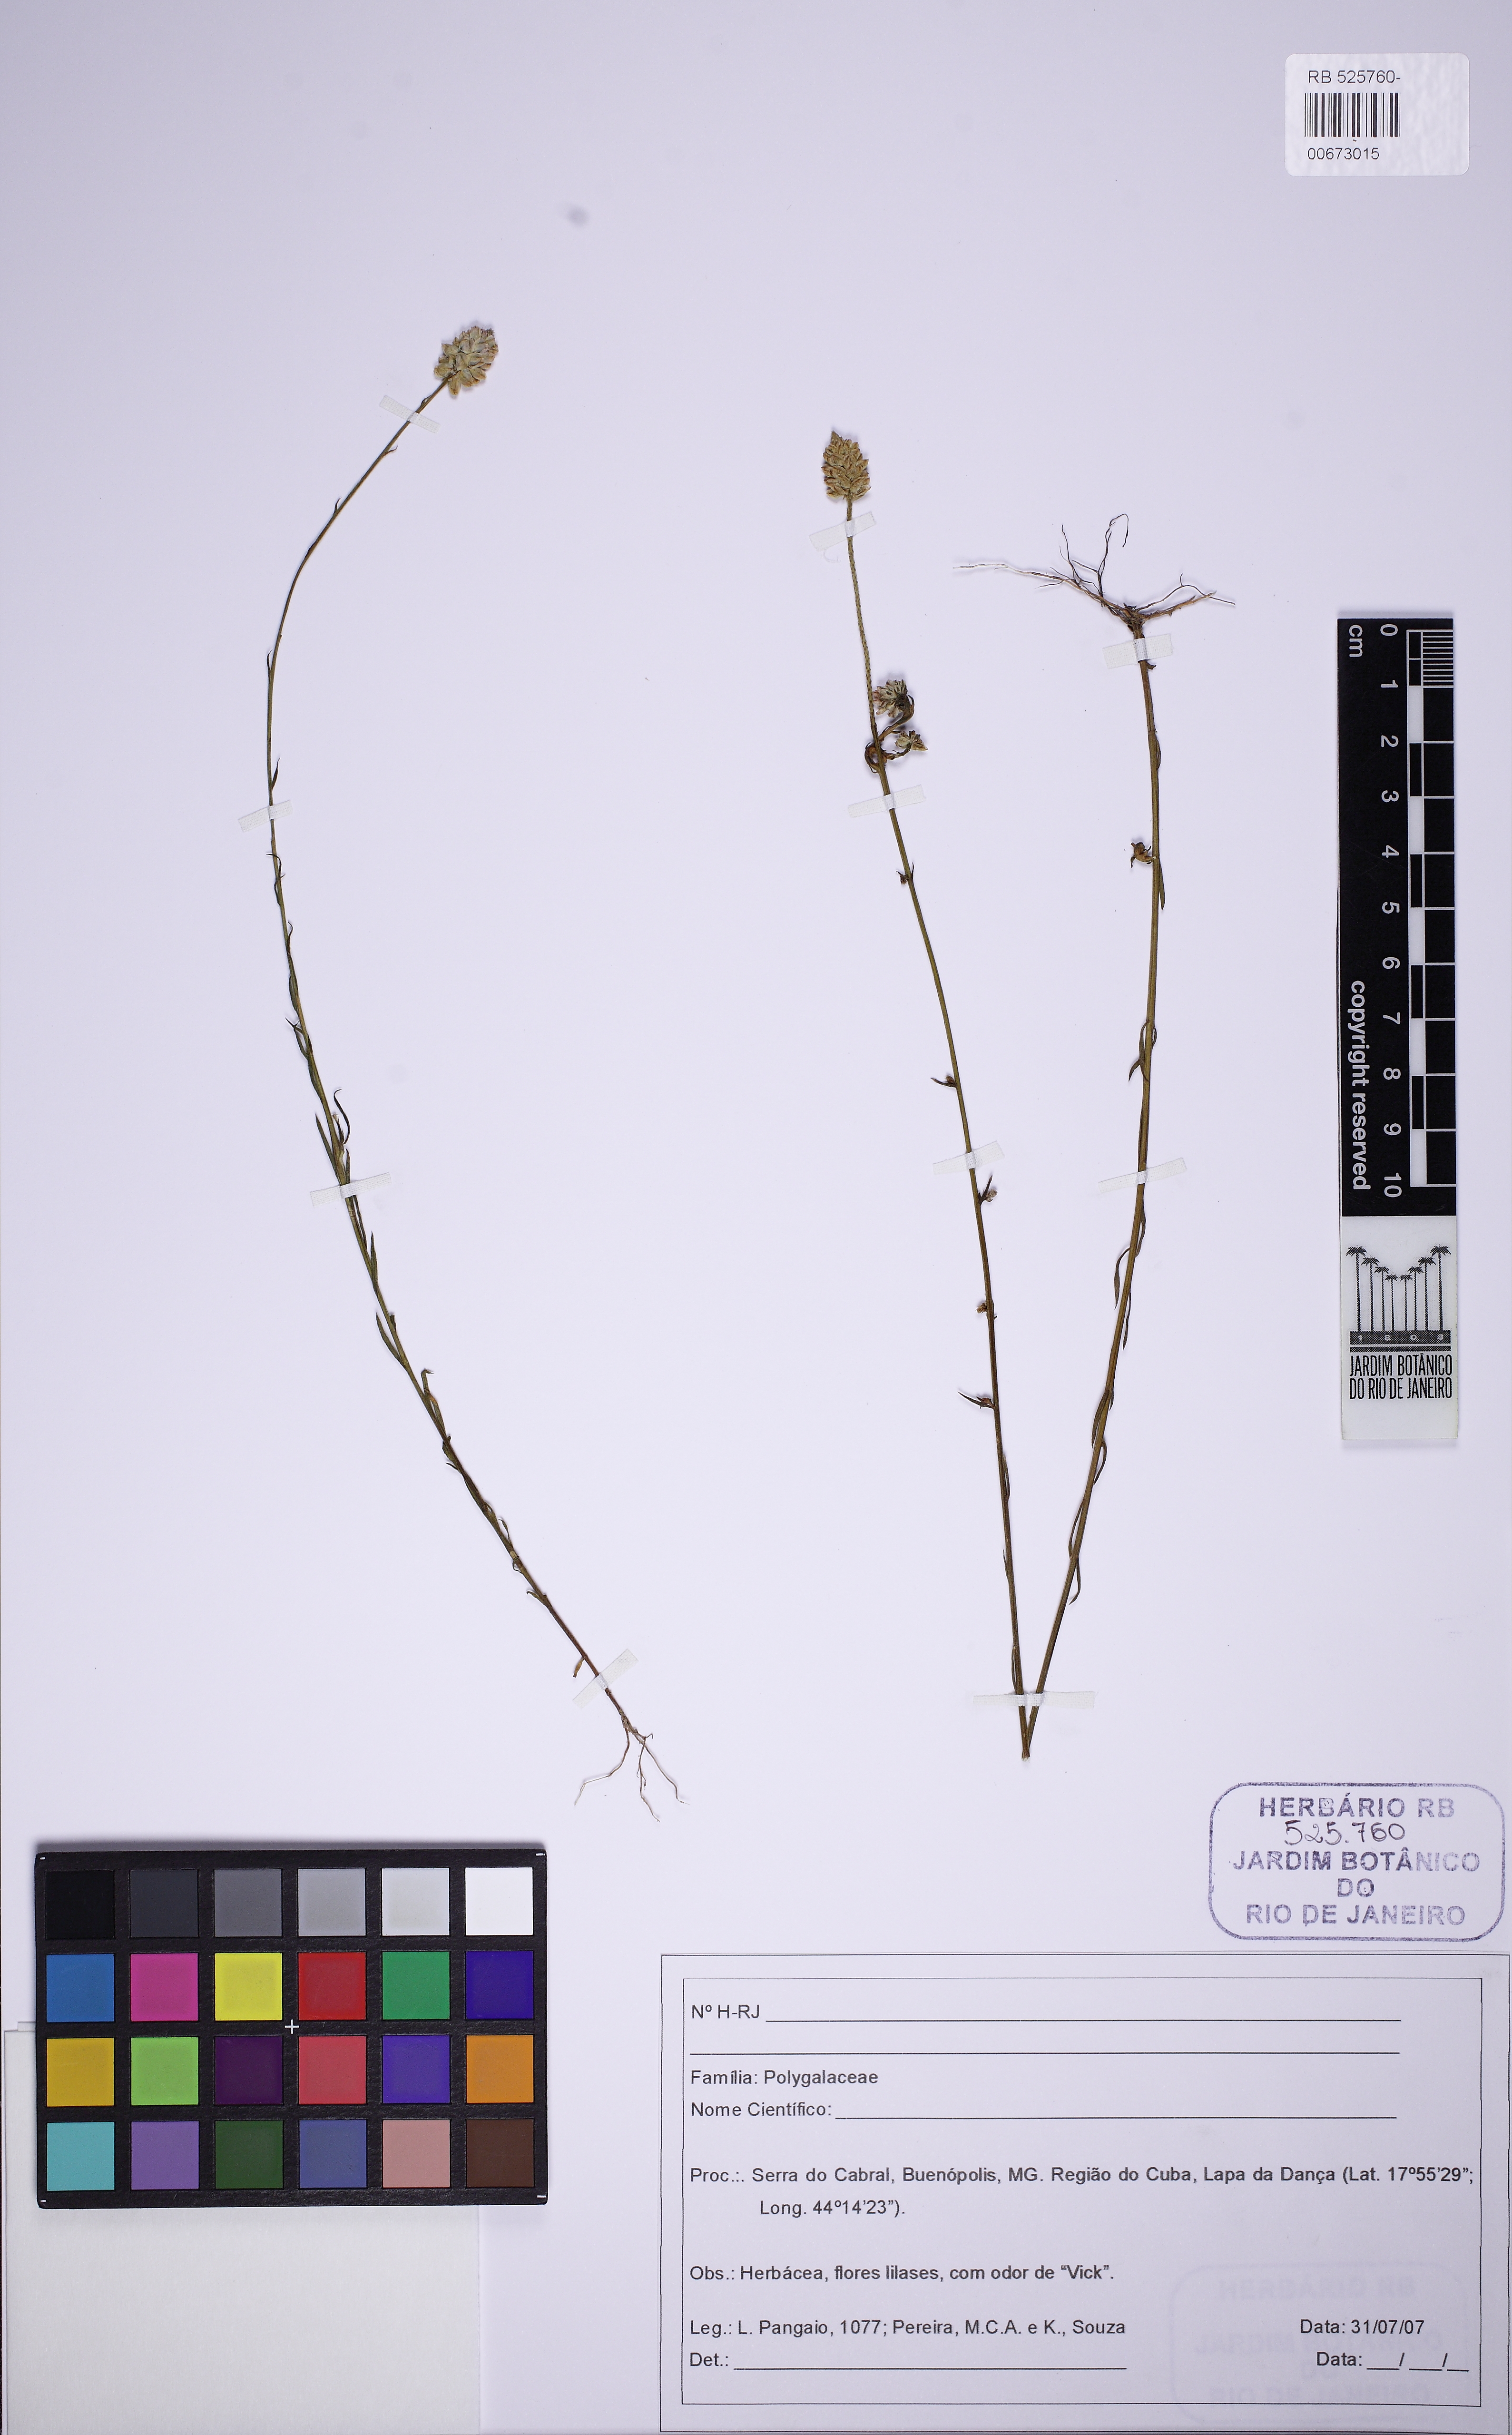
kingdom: Plantae
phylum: Tracheophyta
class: Magnoliopsida
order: Fabales
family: Polygalaceae
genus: Polygala
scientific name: Polygala hygrophila
